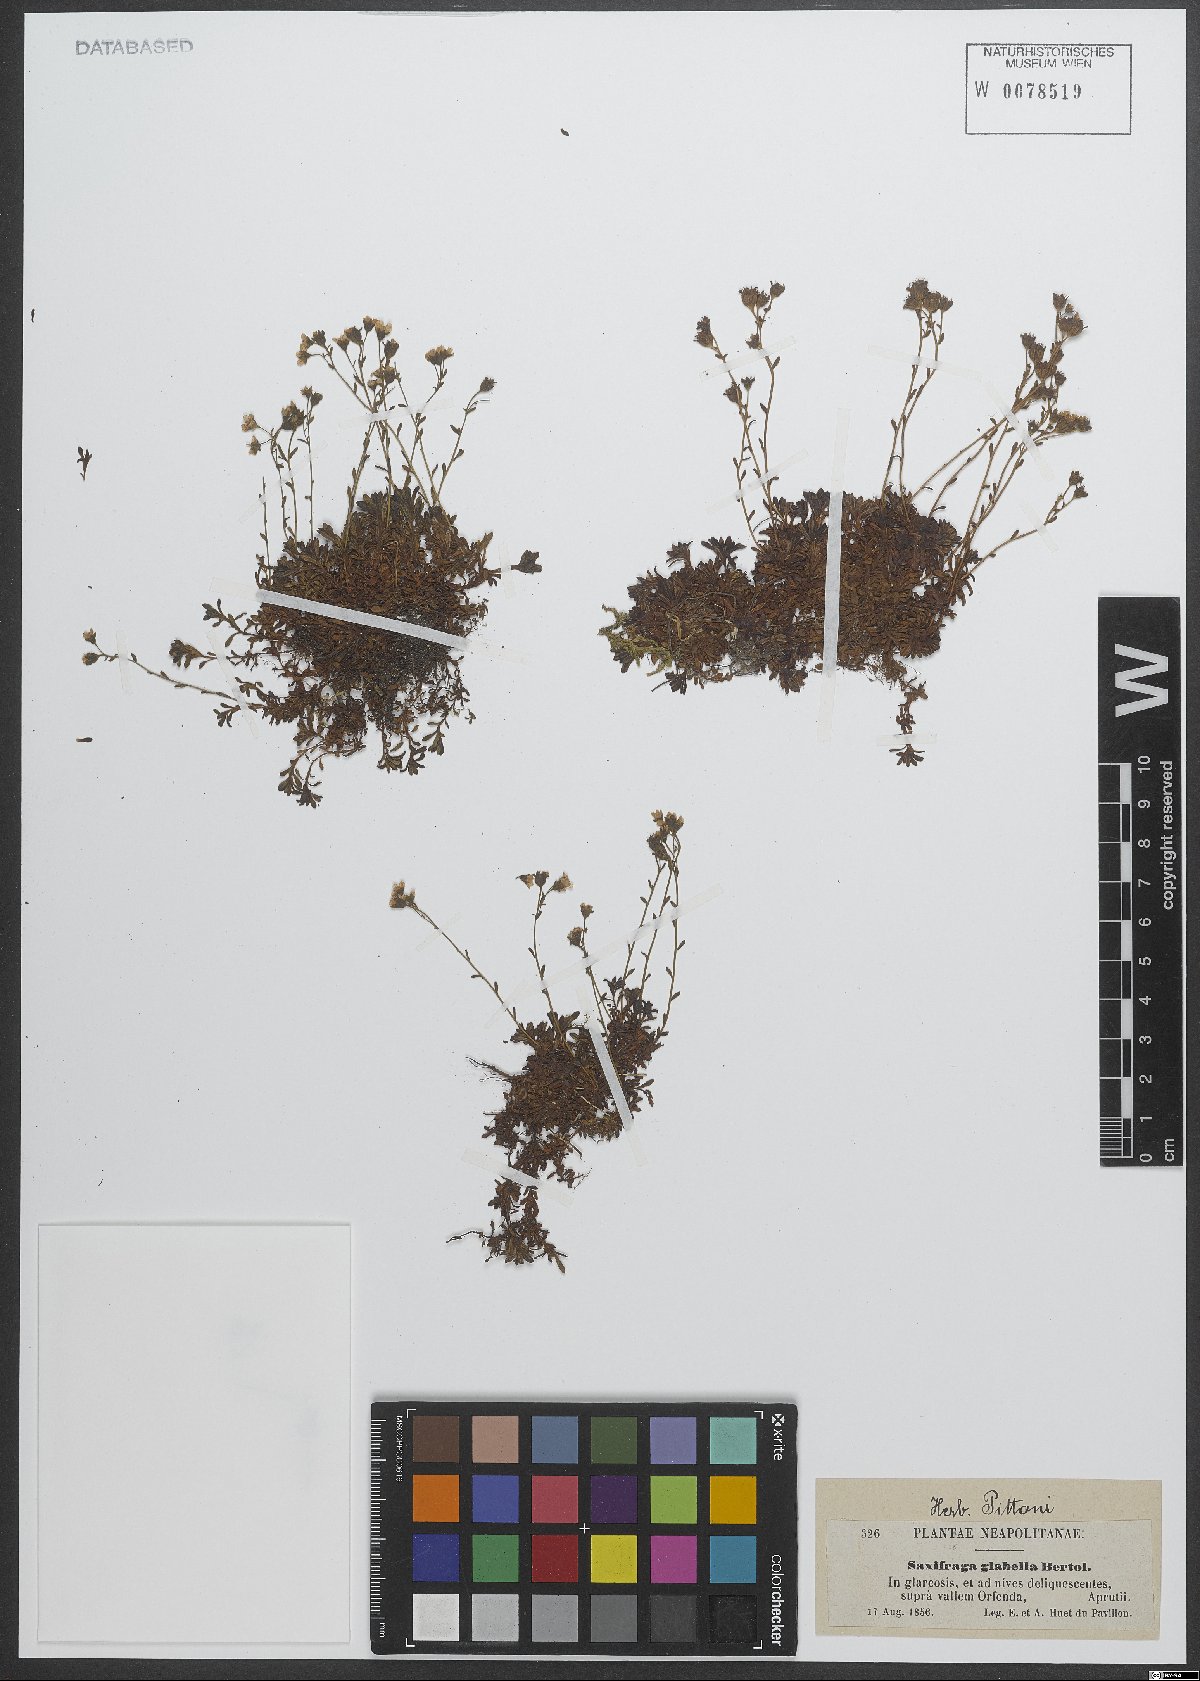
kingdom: Plantae
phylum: Tracheophyta
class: Magnoliopsida
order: Saxifragales
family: Saxifragaceae
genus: Saxifraga
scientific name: Saxifraga glabella
